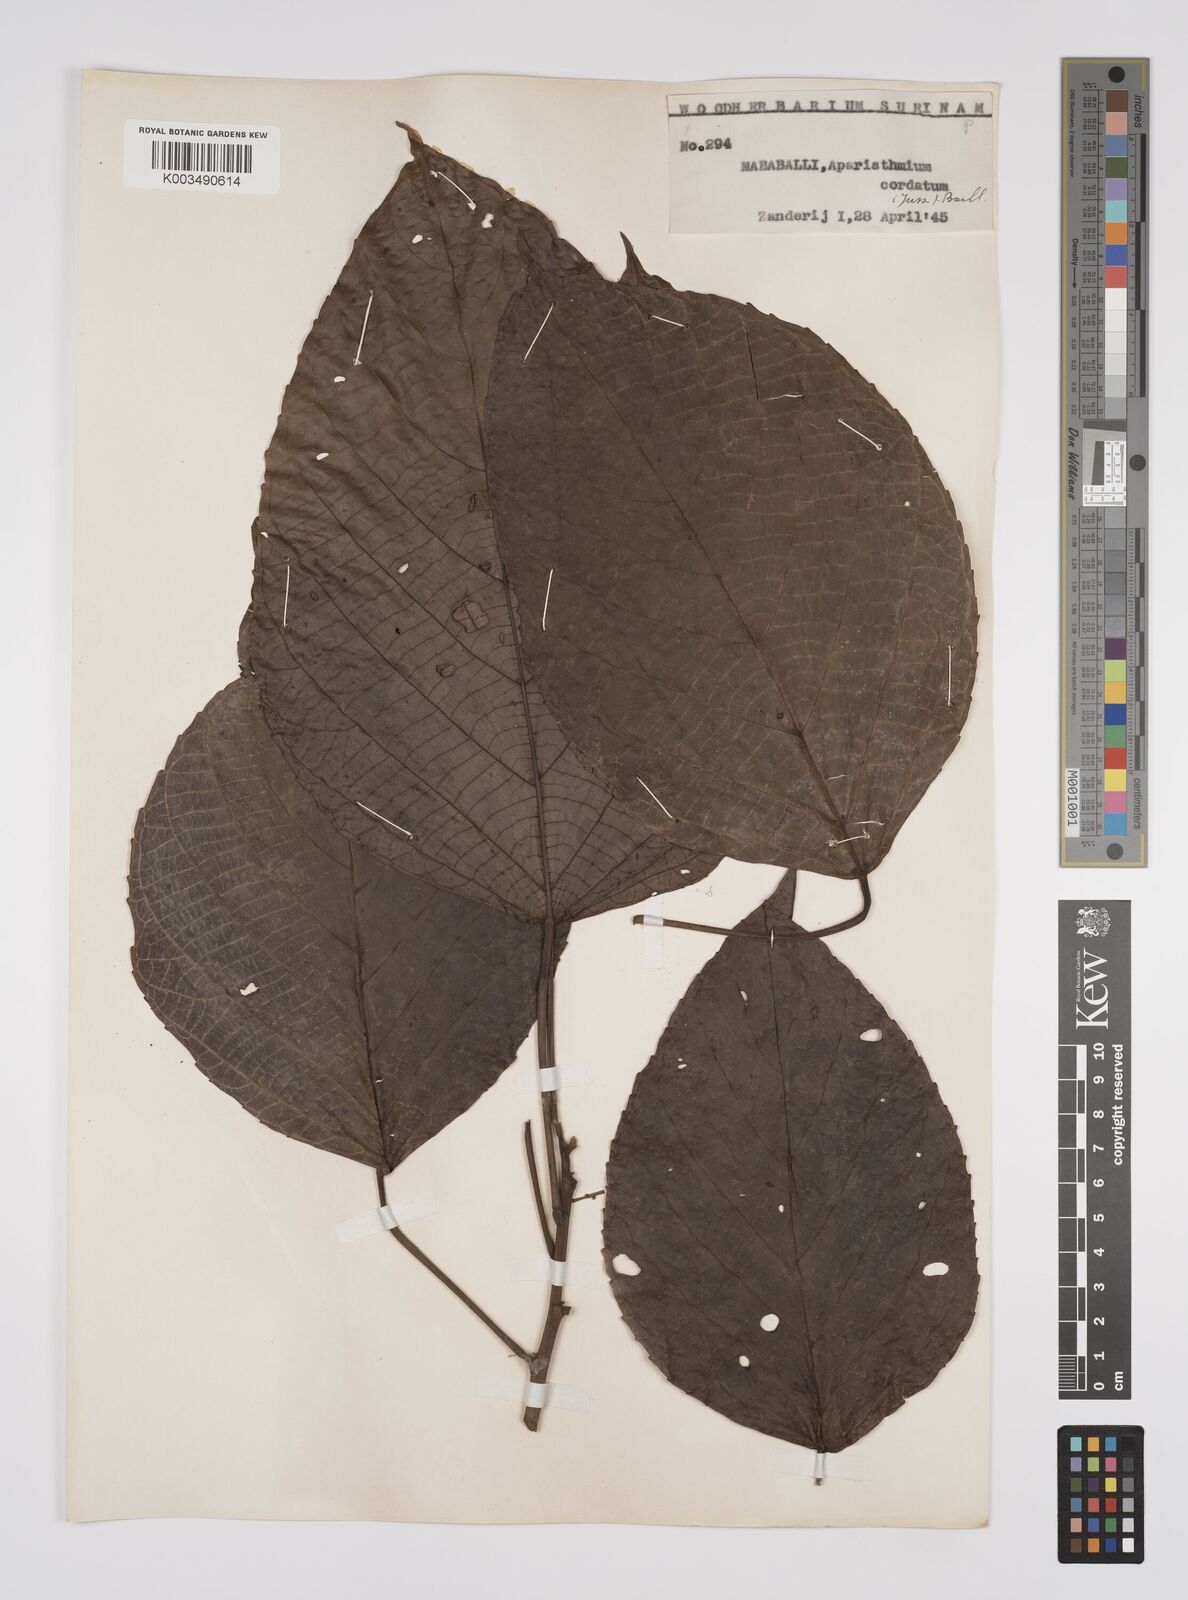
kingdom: Plantae
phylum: Tracheophyta
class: Magnoliopsida
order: Malpighiales
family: Euphorbiaceae
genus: Aparisthmium
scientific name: Aparisthmium cordatum
